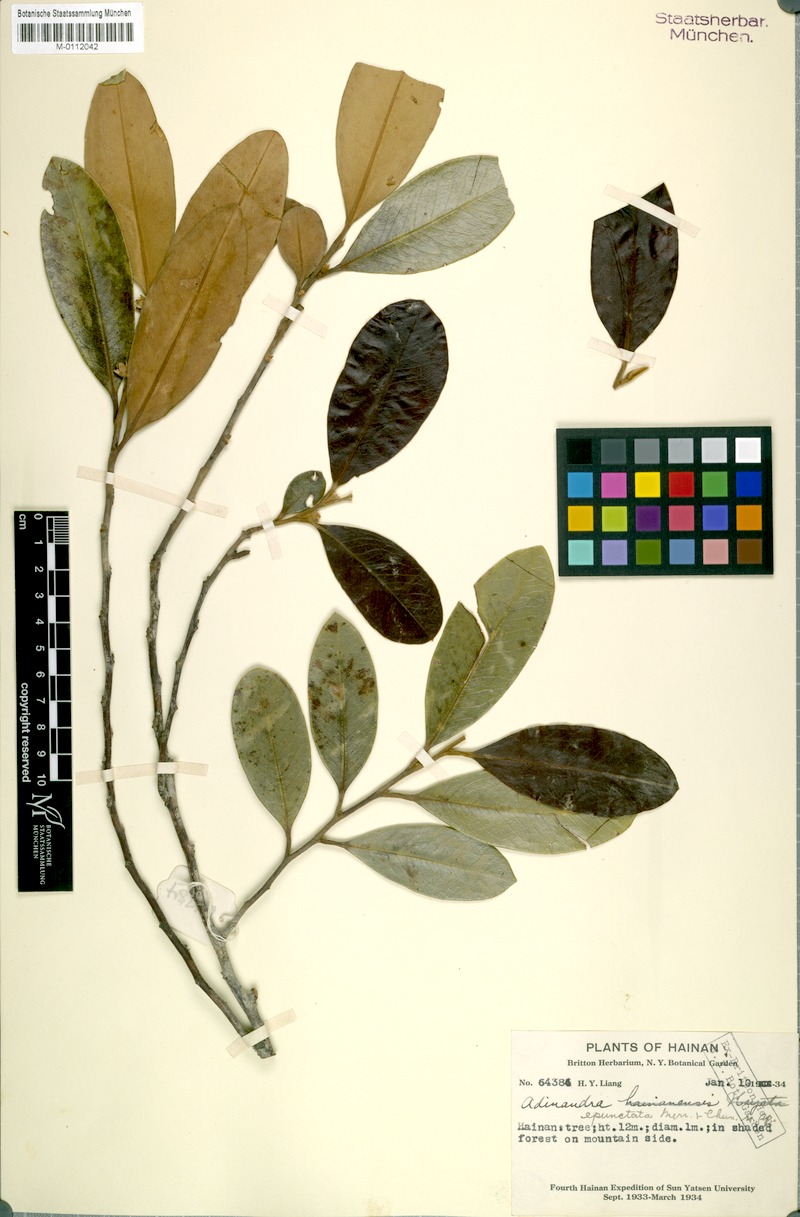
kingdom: Plantae
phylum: Tracheophyta
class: Magnoliopsida
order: Ericales
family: Pentaphylacaceae
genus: Adinandra
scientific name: Adinandra epunctata
